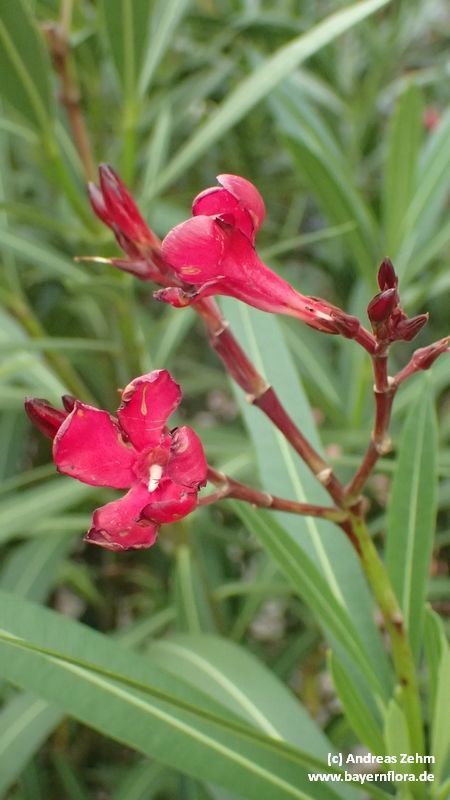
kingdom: Plantae
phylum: Tracheophyta
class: Magnoliopsida
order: Gentianales
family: Apocynaceae
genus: Nerium
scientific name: Nerium oleander
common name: Oleander
